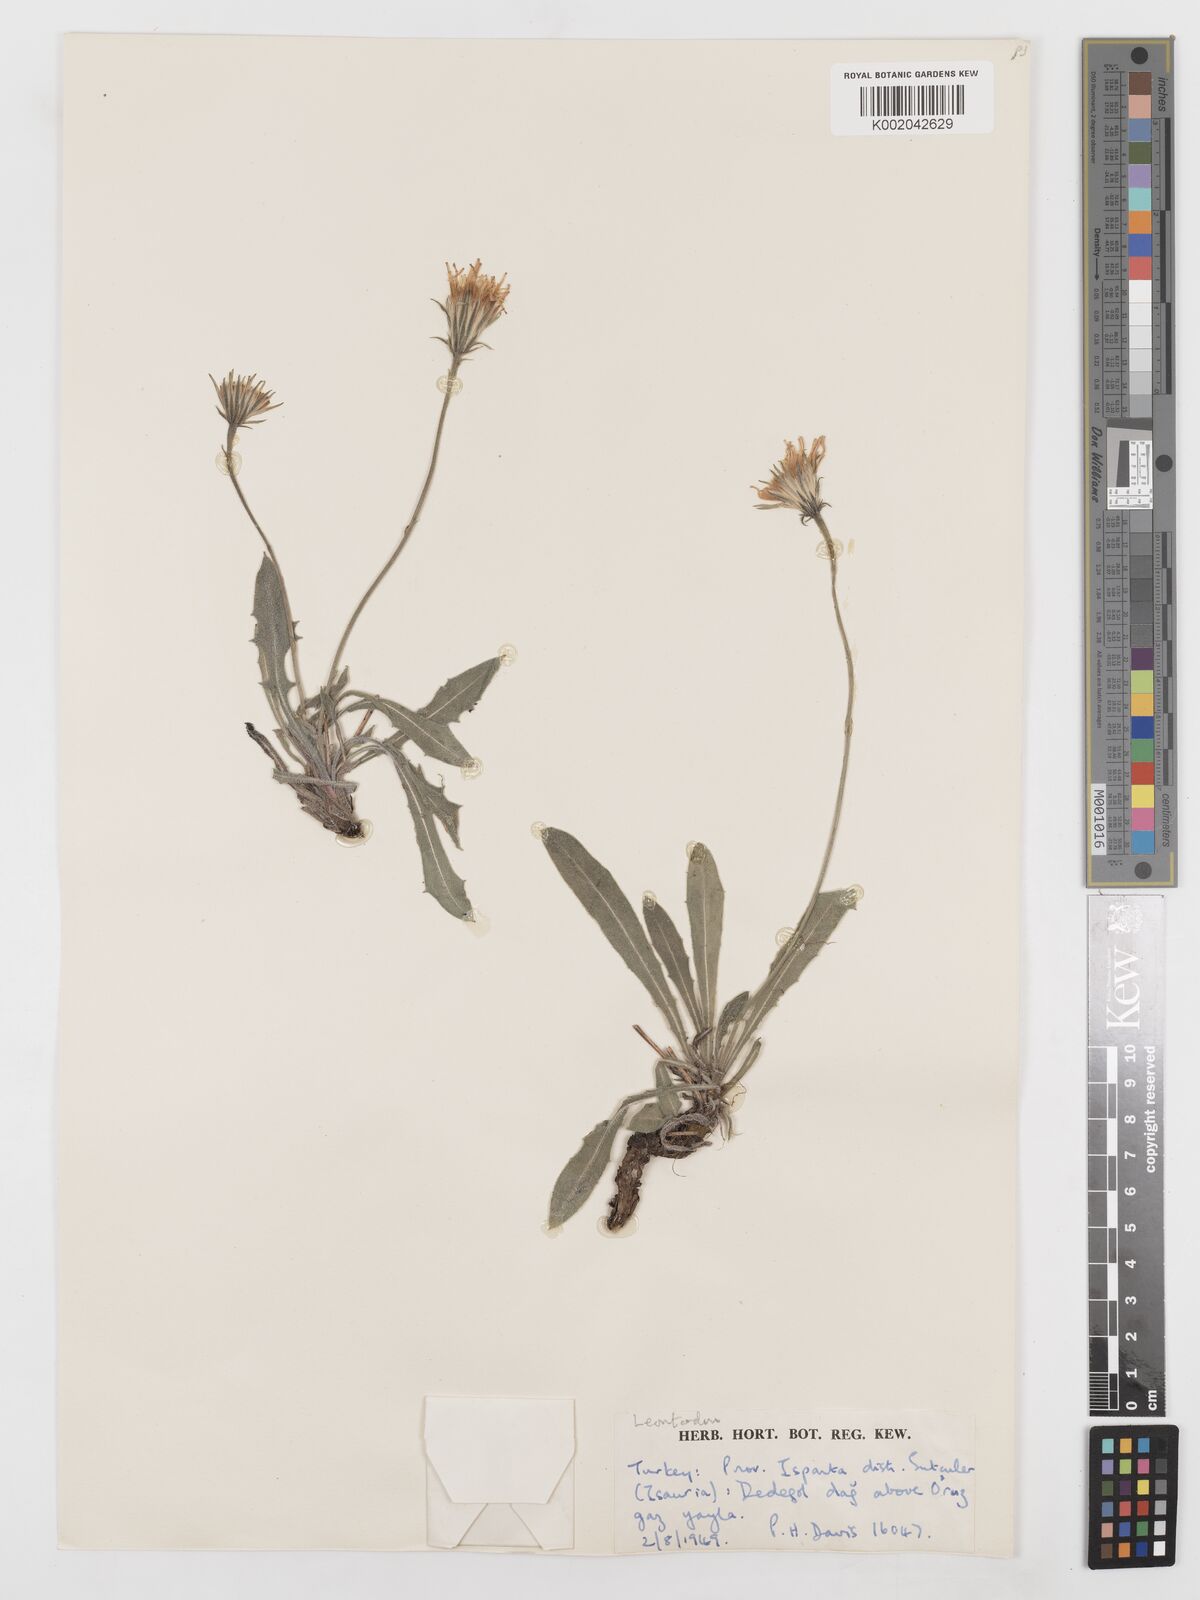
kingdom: Plantae
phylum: Tracheophyta
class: Magnoliopsida
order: Asterales
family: Asteraceae
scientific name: Asteraceae
